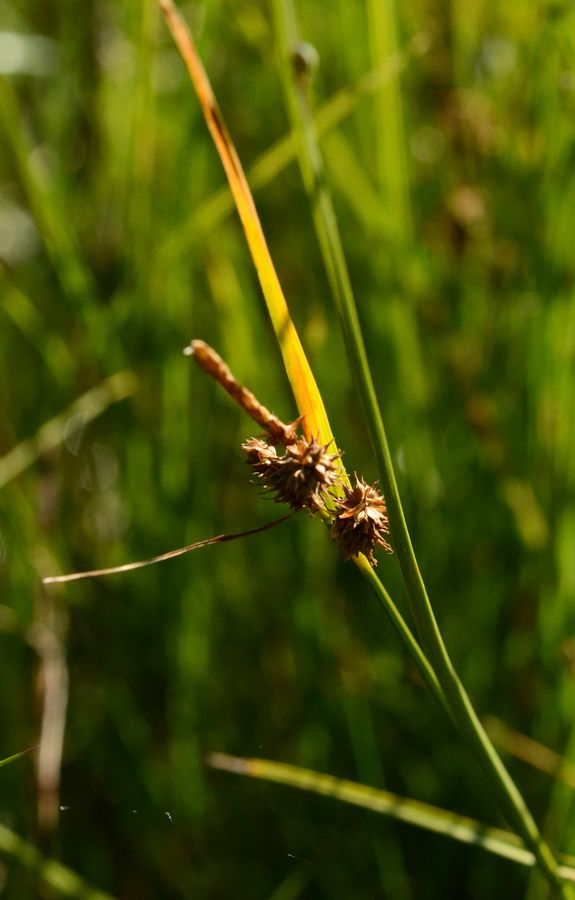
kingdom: Plantae
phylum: Tracheophyta
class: Liliopsida
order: Poales
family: Cyperaceae
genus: Carex
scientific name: Carex lepidocarpa
